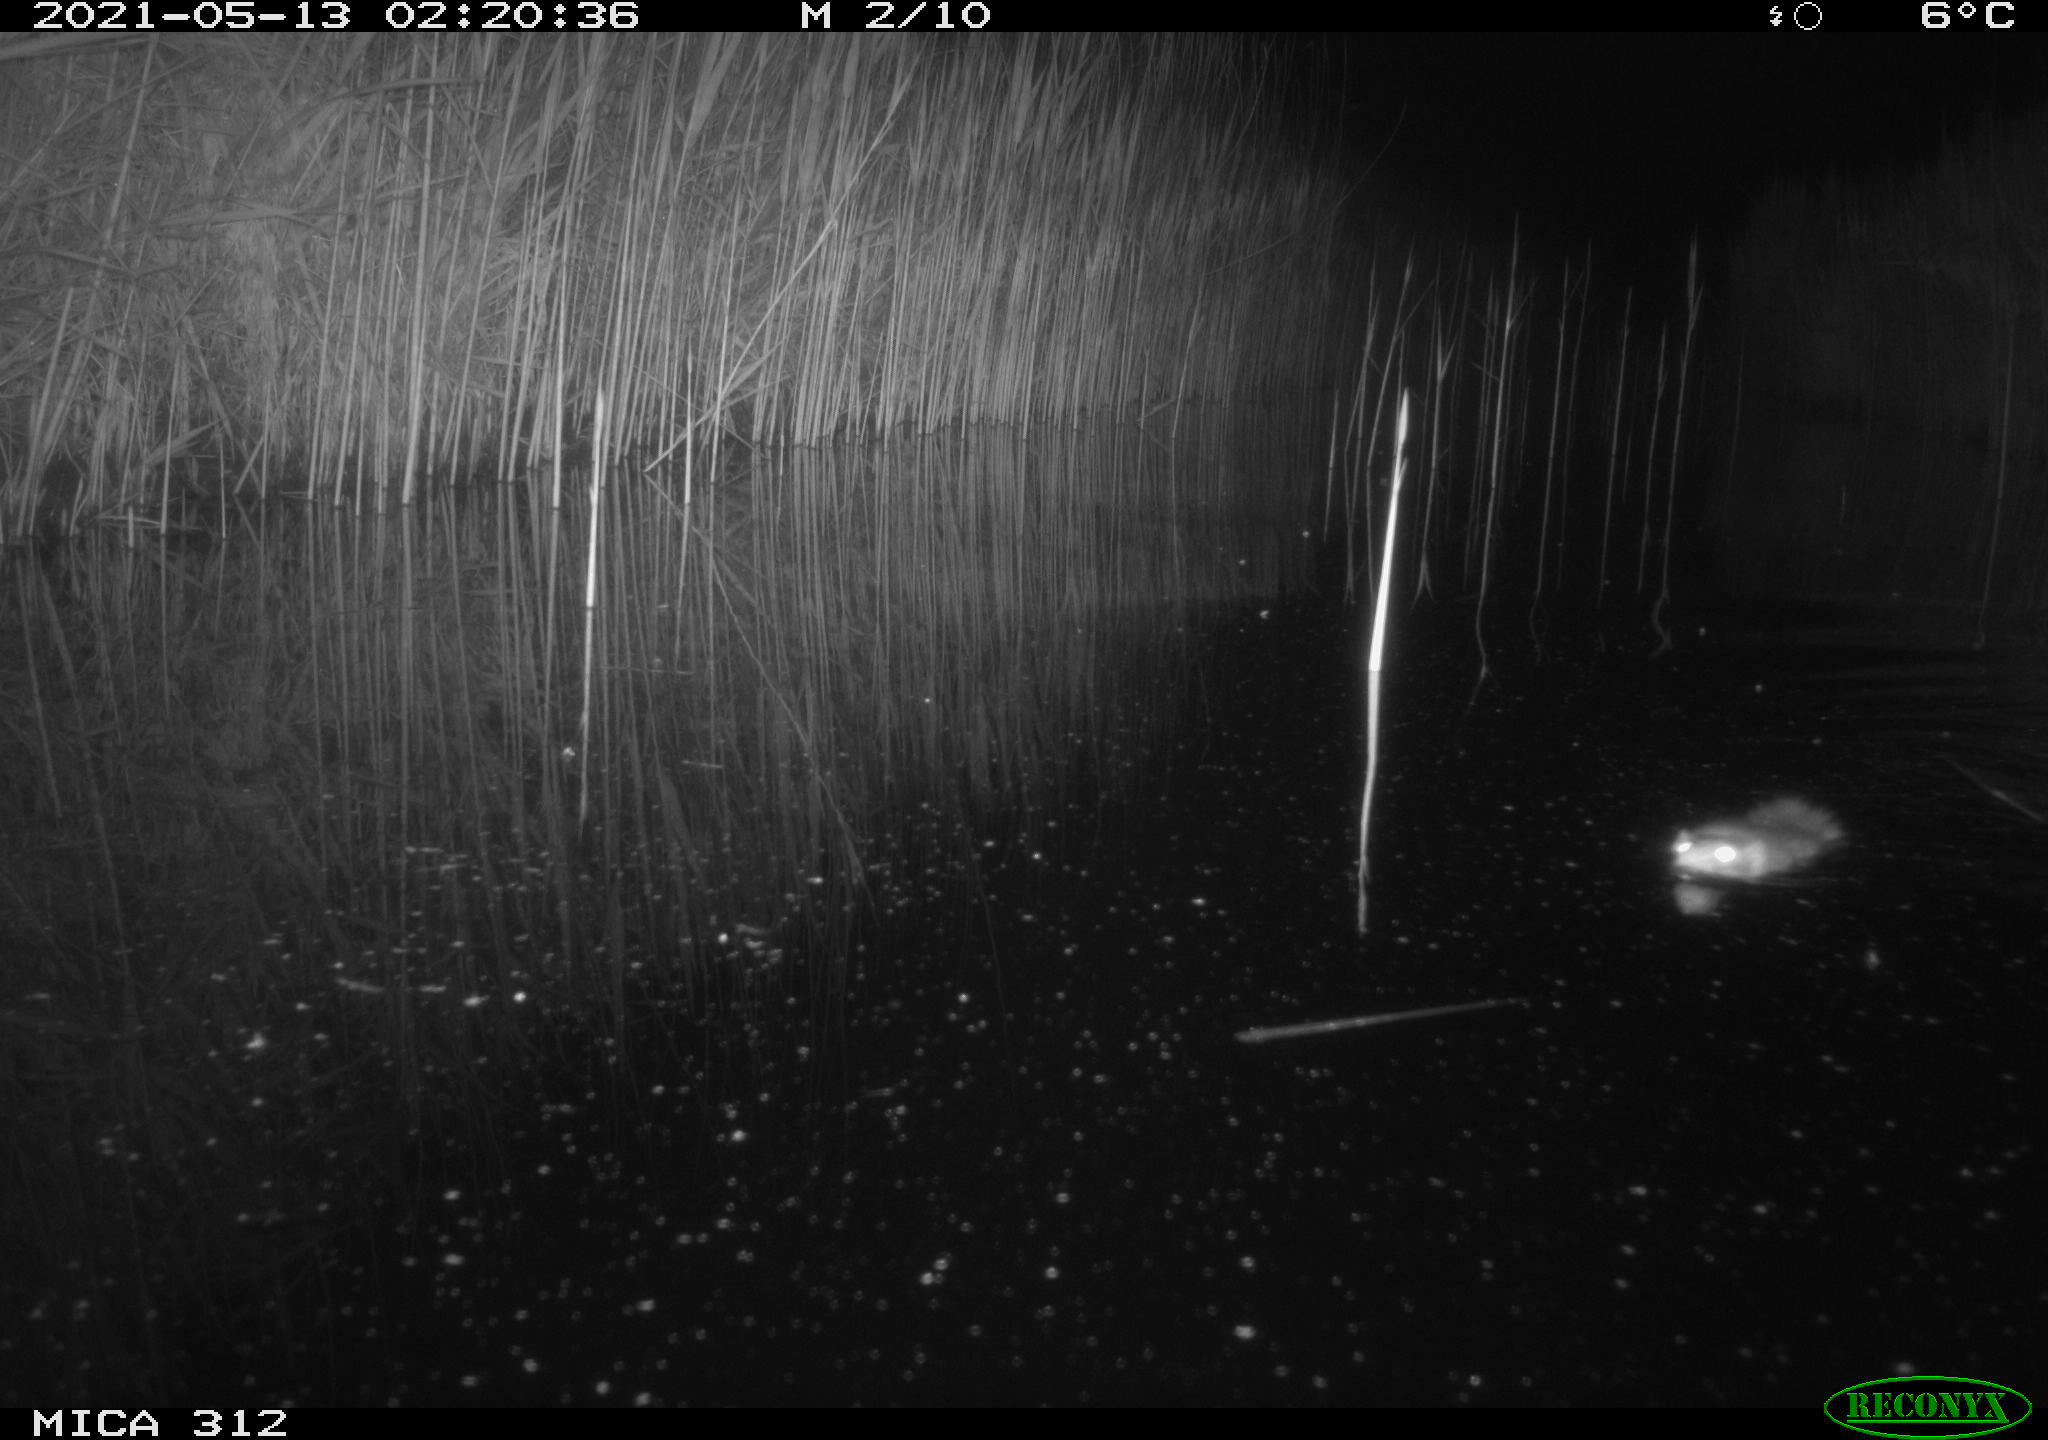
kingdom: Animalia
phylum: Chordata
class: Mammalia
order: Rodentia
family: Muridae
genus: Rattus
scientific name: Rattus norvegicus
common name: Brown rat
